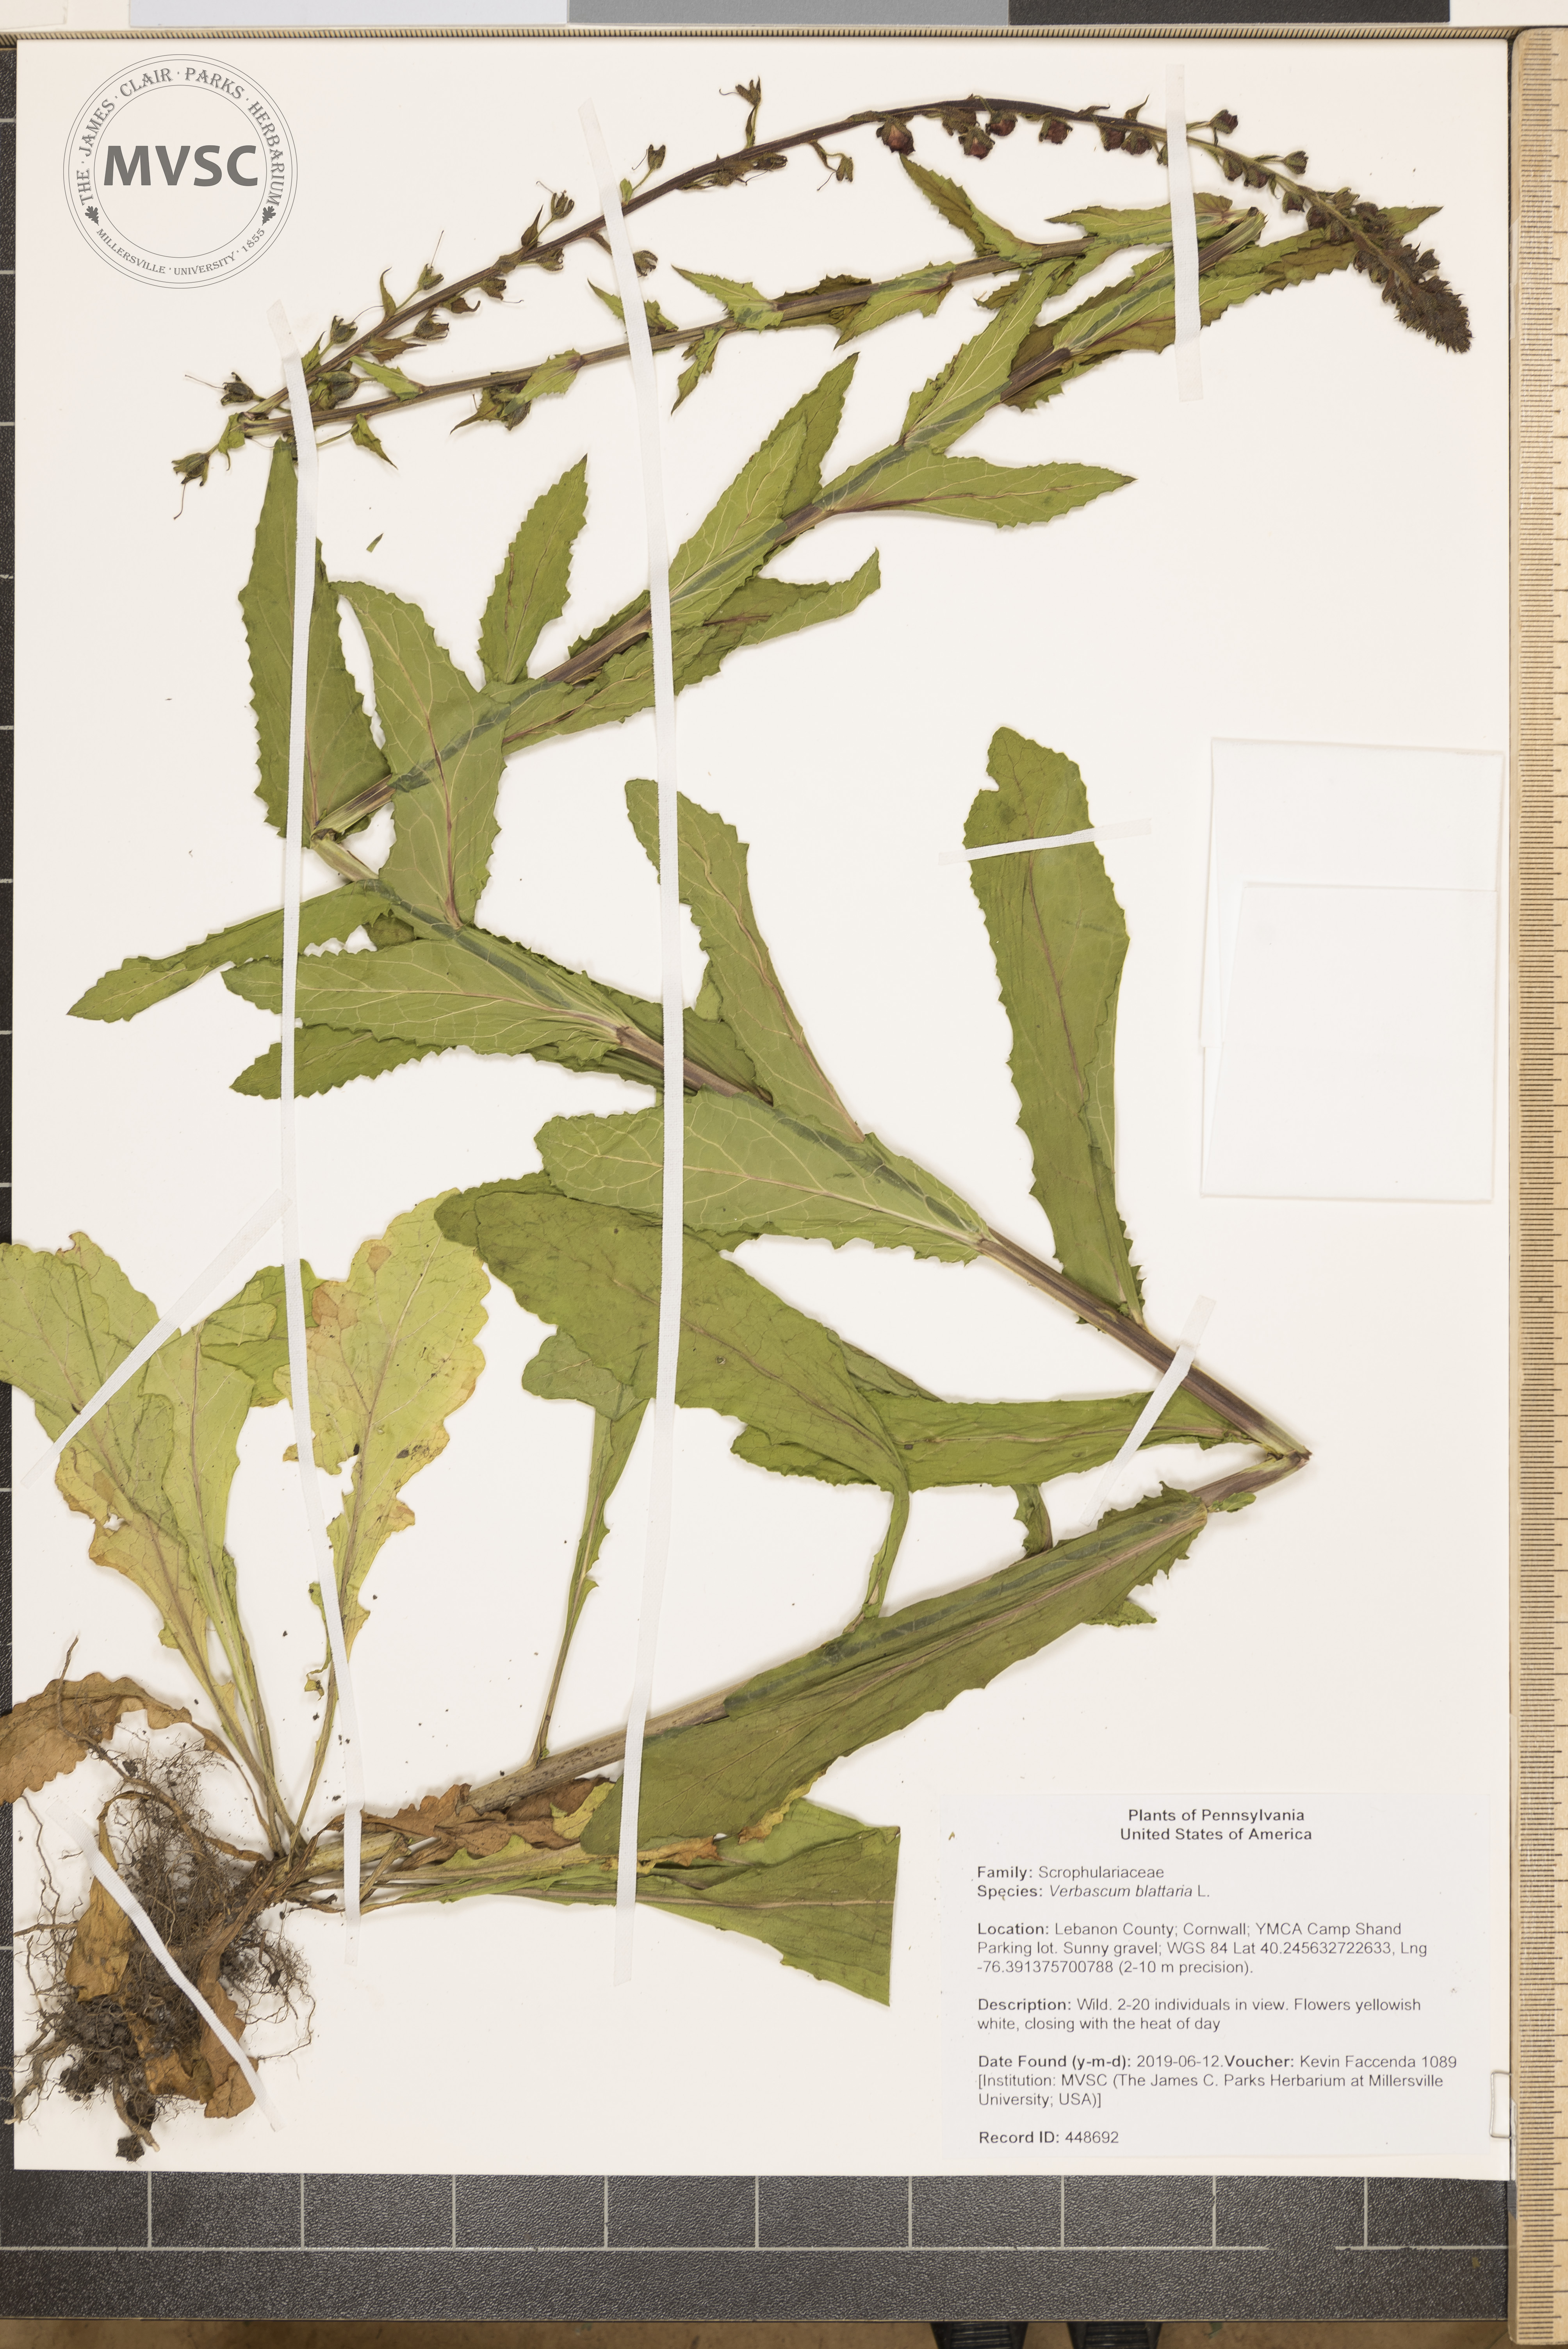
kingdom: Plantae
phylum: Tracheophyta
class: Magnoliopsida
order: Lamiales
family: Scrophulariaceae
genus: Verbascum
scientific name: Verbascum blattaria
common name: Moth mullein
